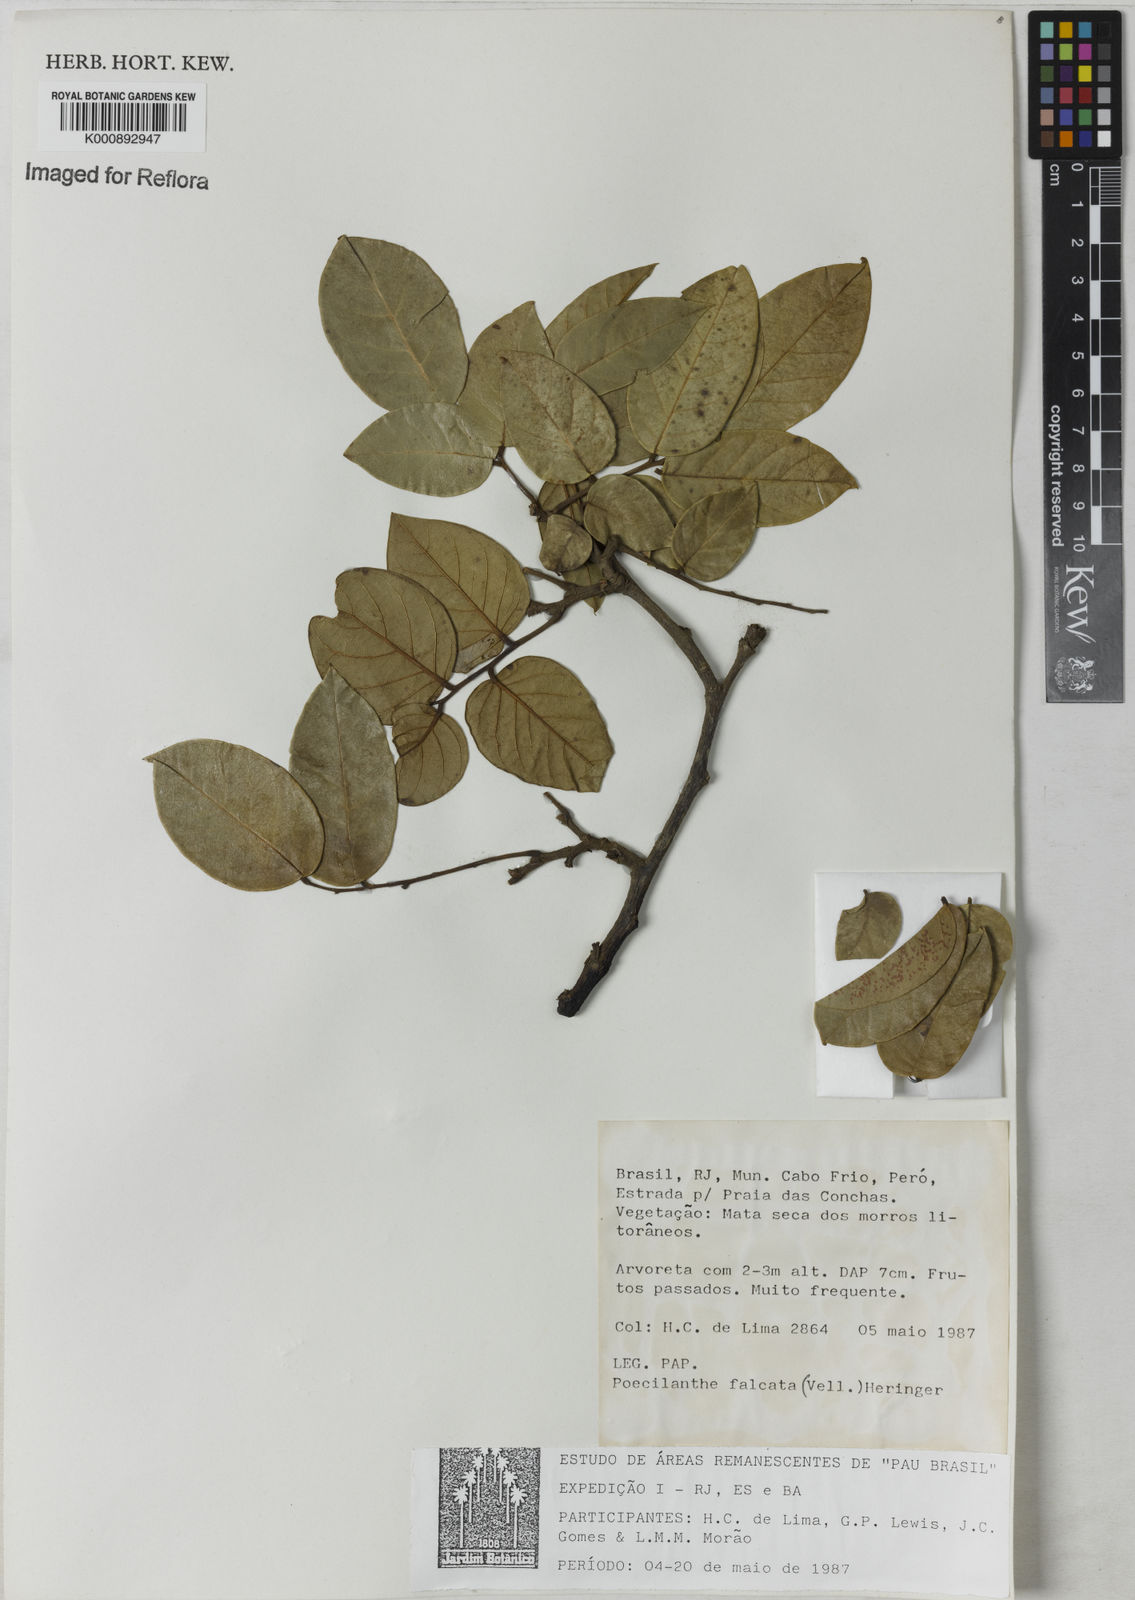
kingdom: Plantae
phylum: Tracheophyta
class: Magnoliopsida
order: Fabales
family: Fabaceae
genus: Poecilanthe
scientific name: Poecilanthe falcata
